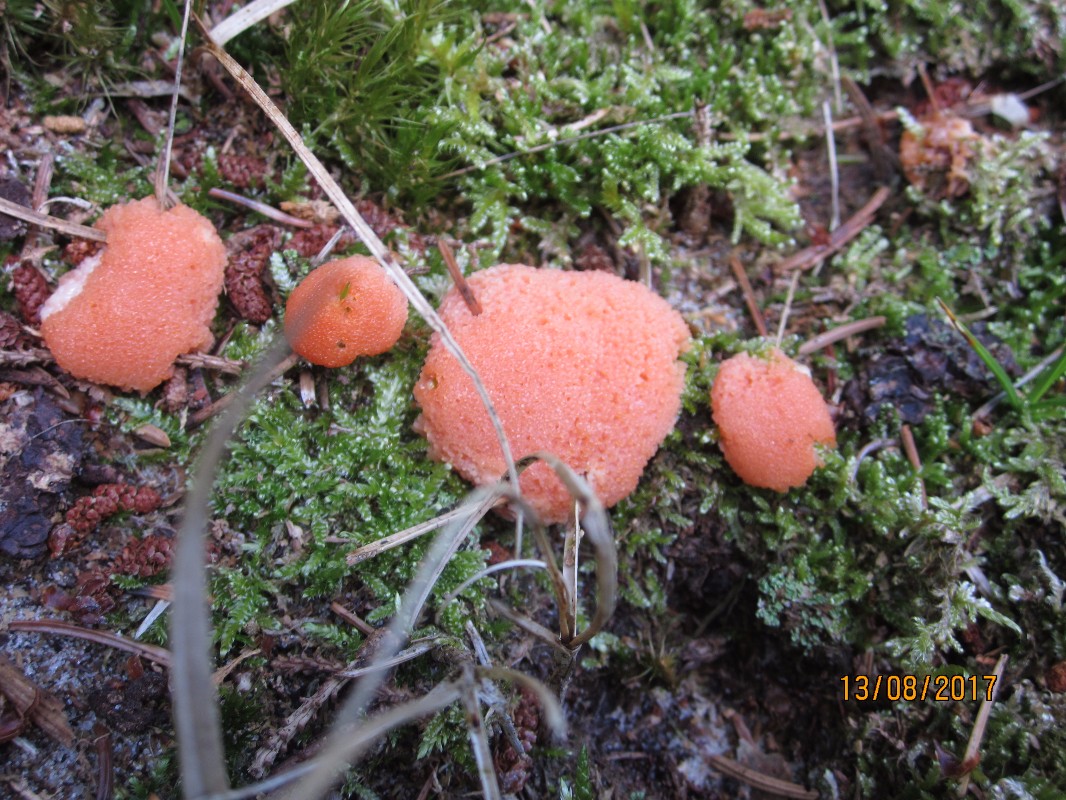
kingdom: Protozoa
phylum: Mycetozoa
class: Myxomycetes
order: Cribrariales
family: Tubiferaceae
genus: Tubifera
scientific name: Tubifera ferruginosa
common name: kanel-støvrør
